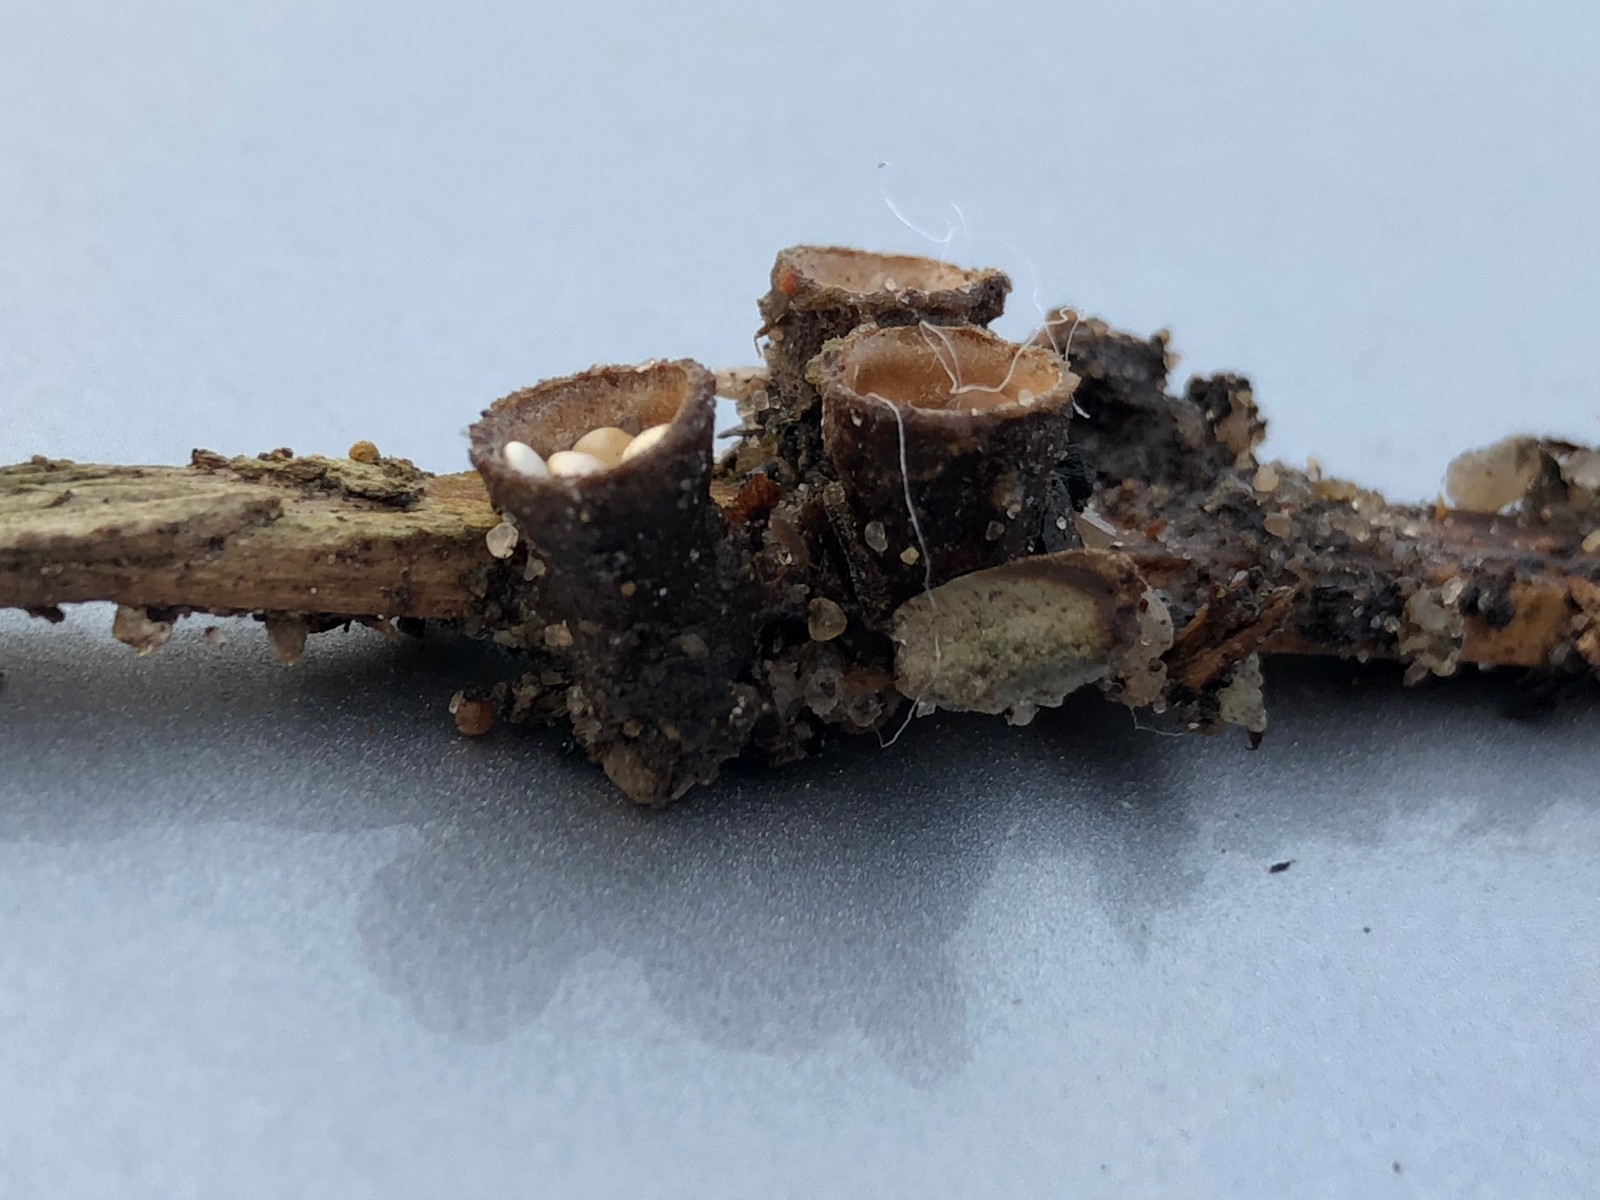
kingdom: Fungi
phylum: Basidiomycota
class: Agaricomycetes
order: Agaricales
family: Nidulariaceae
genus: Crucibulum
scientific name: Crucibulum crucibuliforme
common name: krukkesvamp
